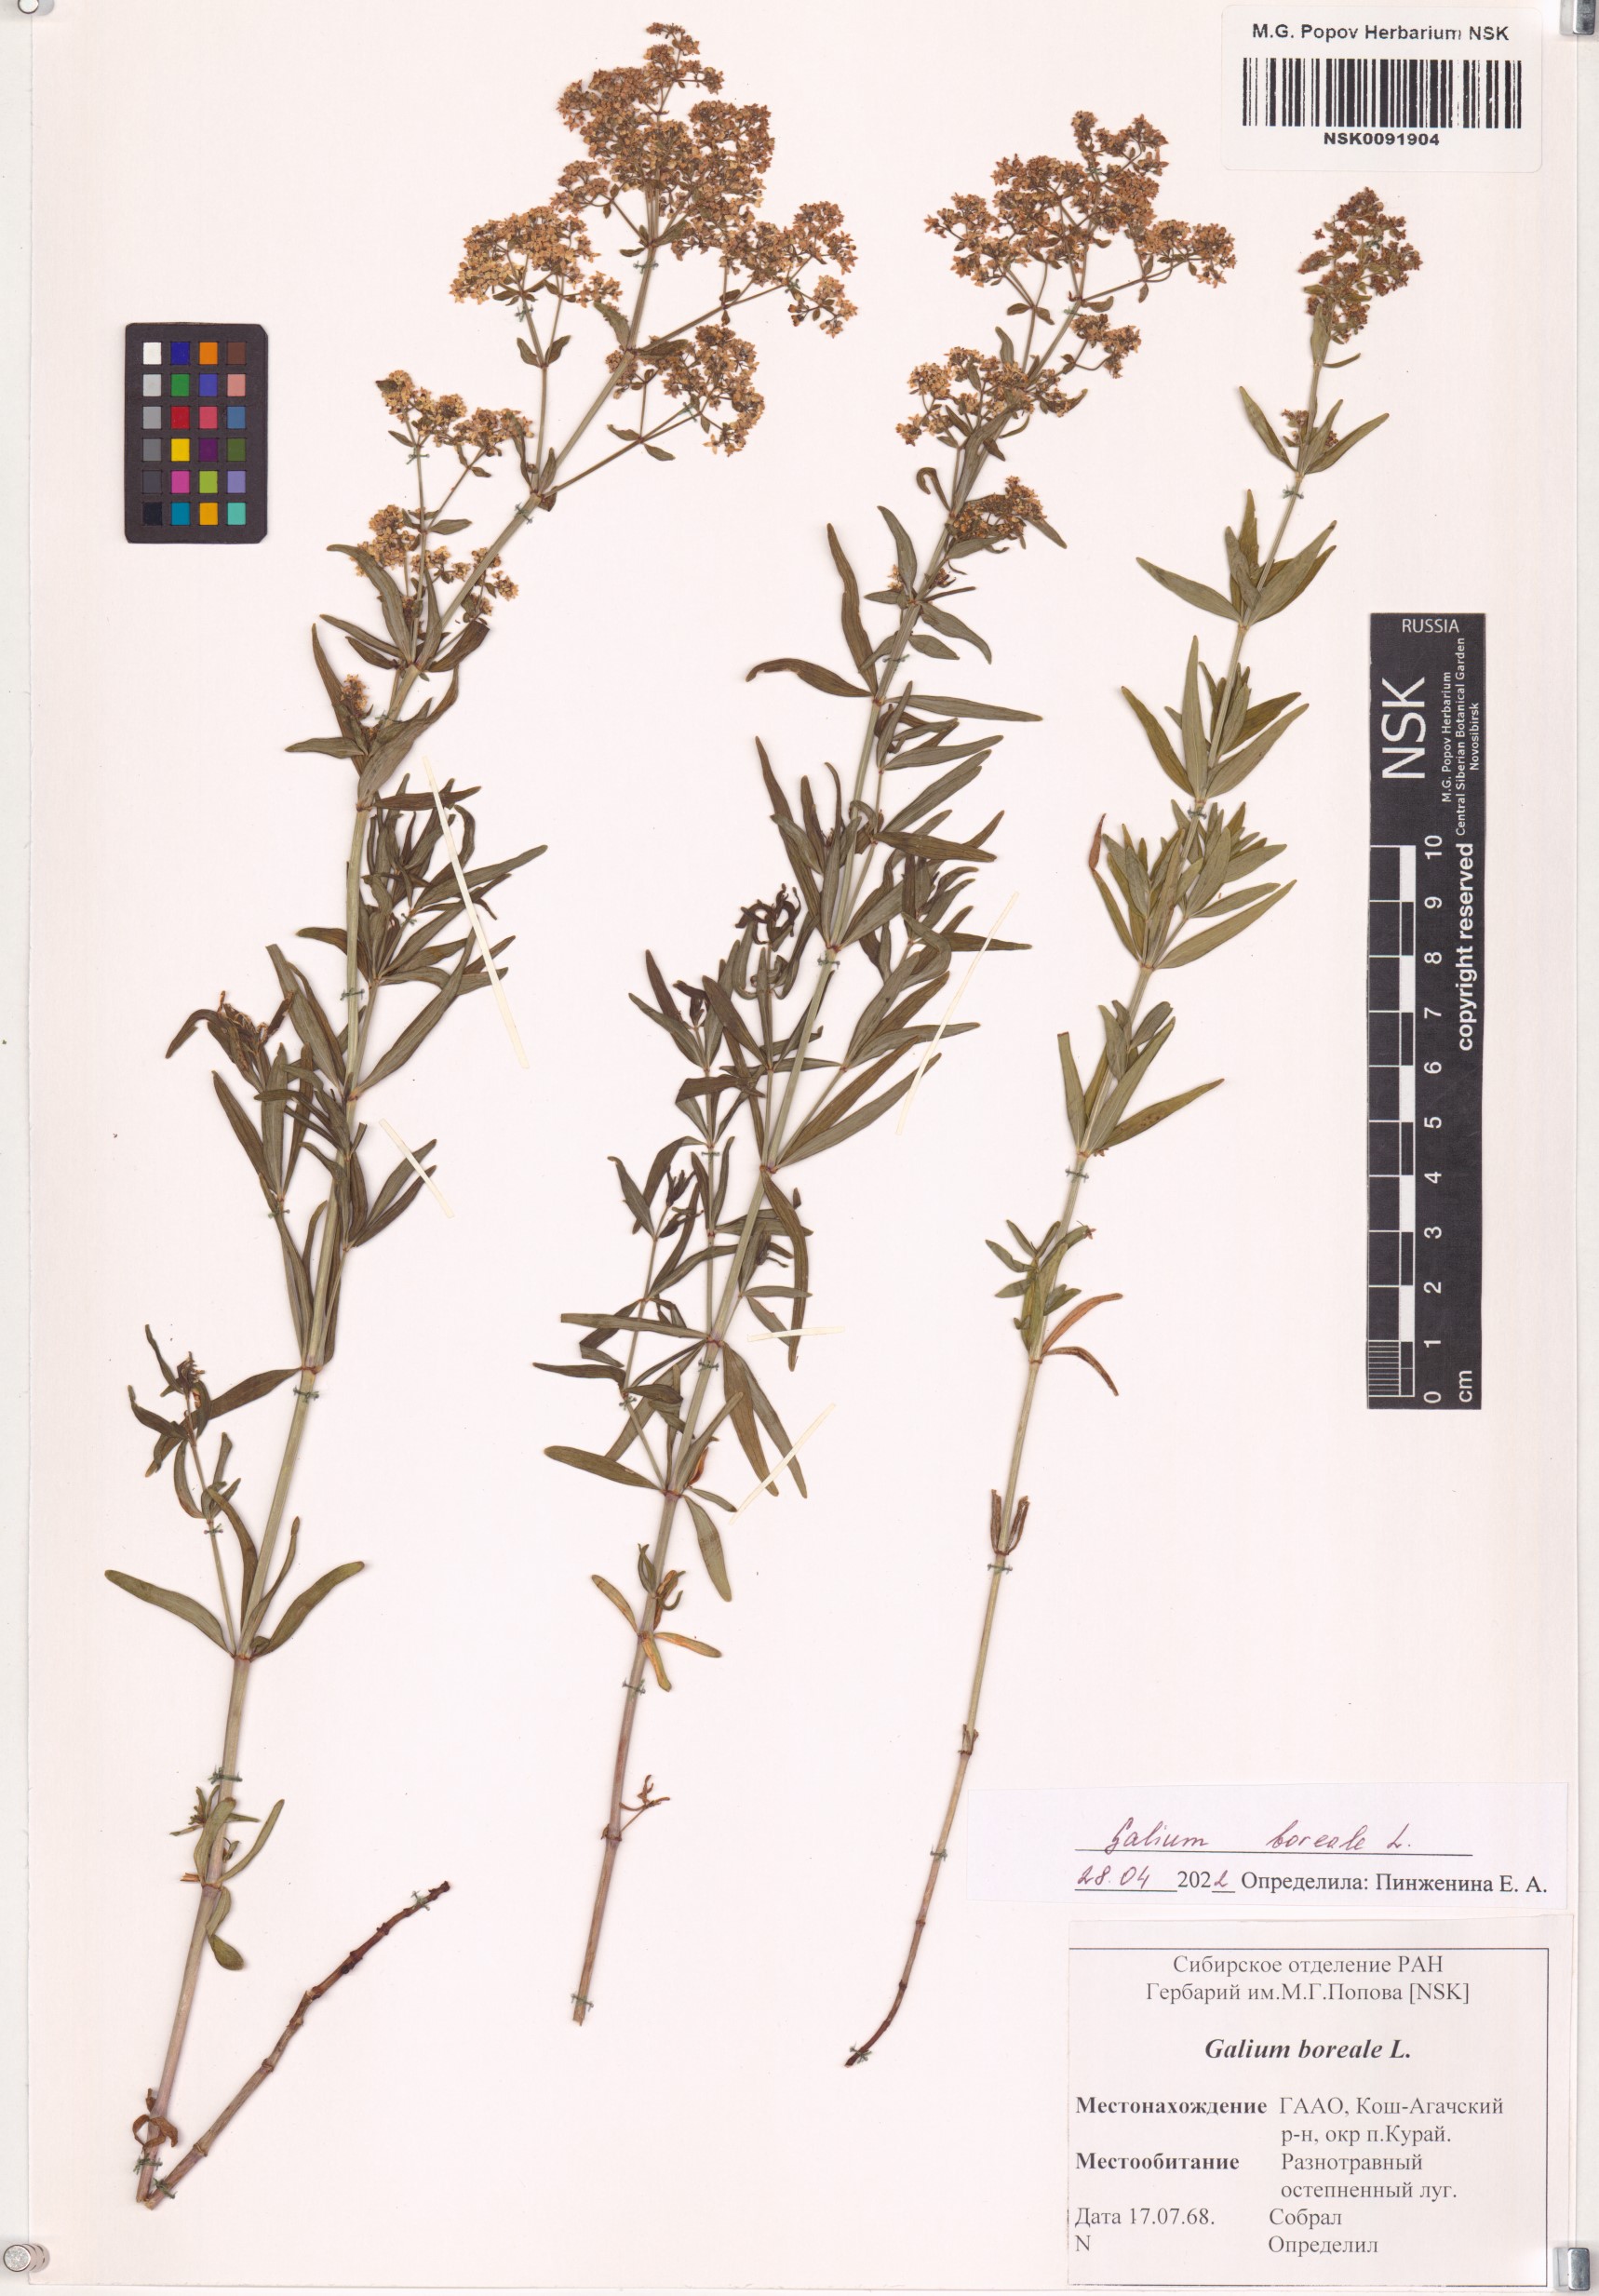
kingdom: Plantae
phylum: Tracheophyta
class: Magnoliopsida
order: Gentianales
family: Rubiaceae
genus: Galium
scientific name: Galium boreale
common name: Northern bedstraw
